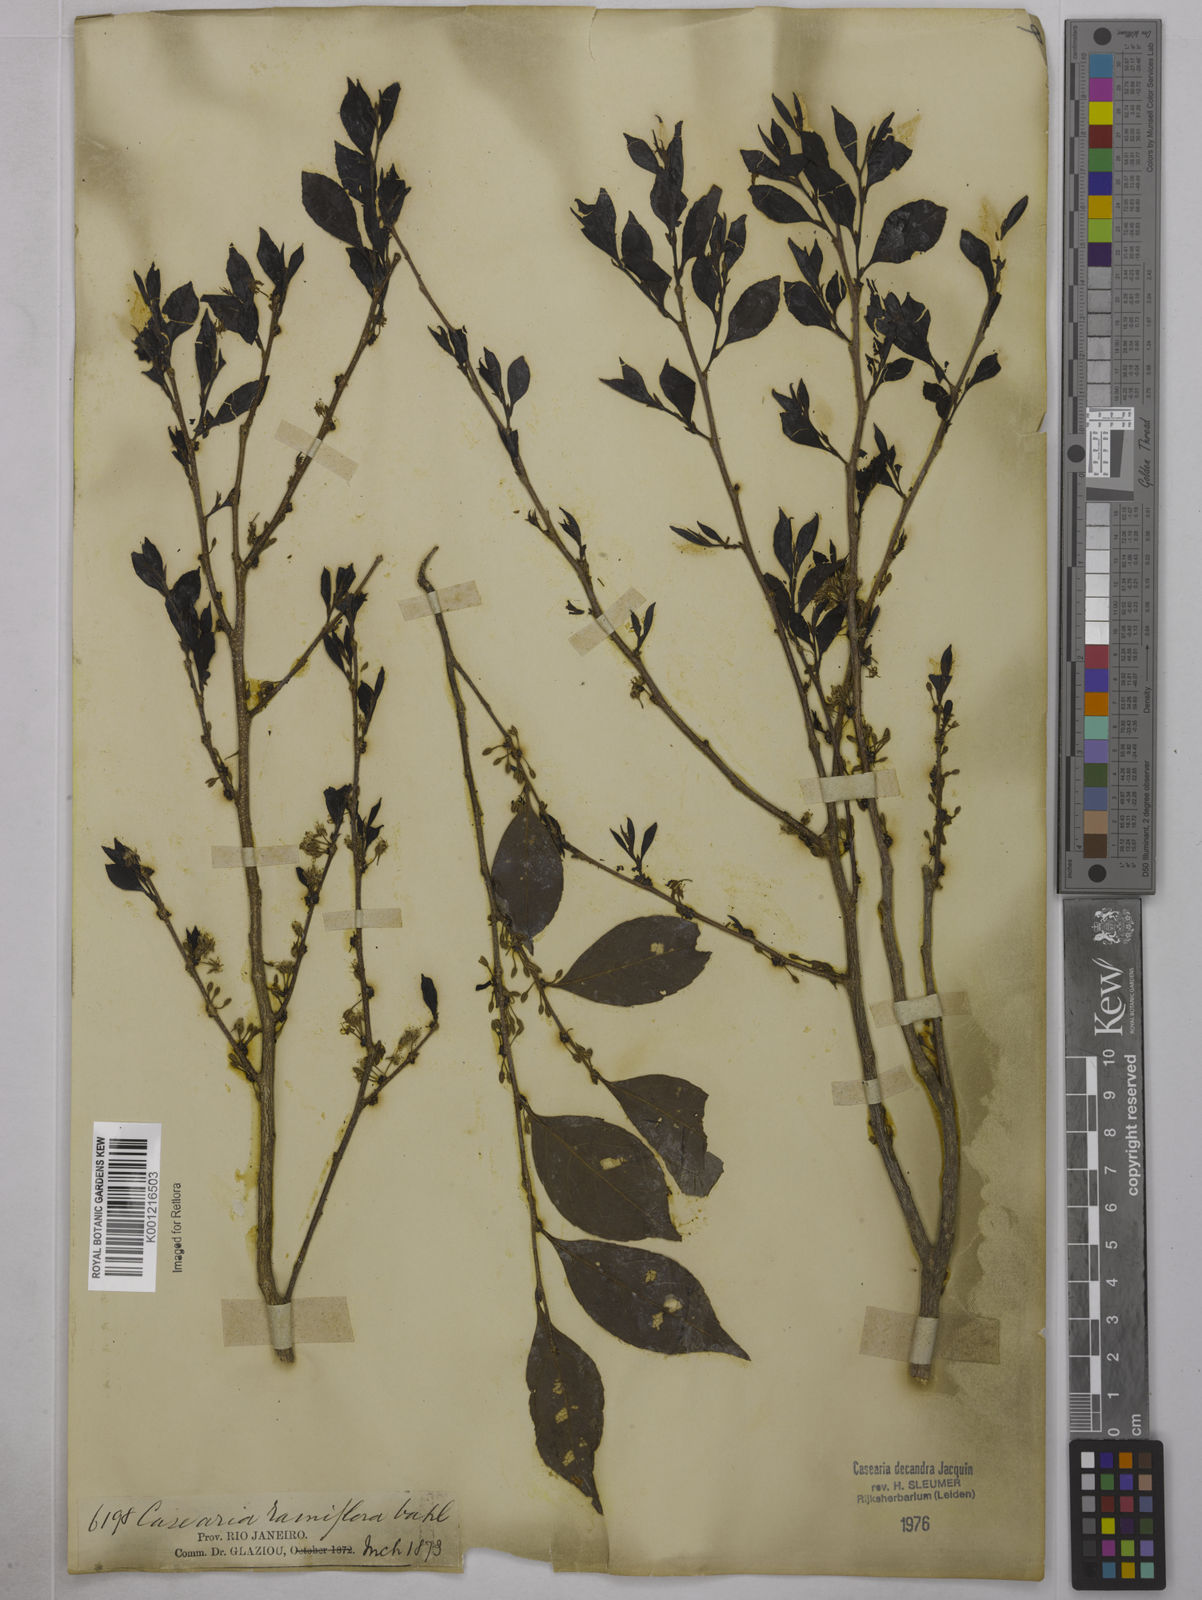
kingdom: Plantae
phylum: Tracheophyta
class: Magnoliopsida
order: Malpighiales
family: Salicaceae
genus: Casearia
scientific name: Casearia decandra
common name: Crack open
